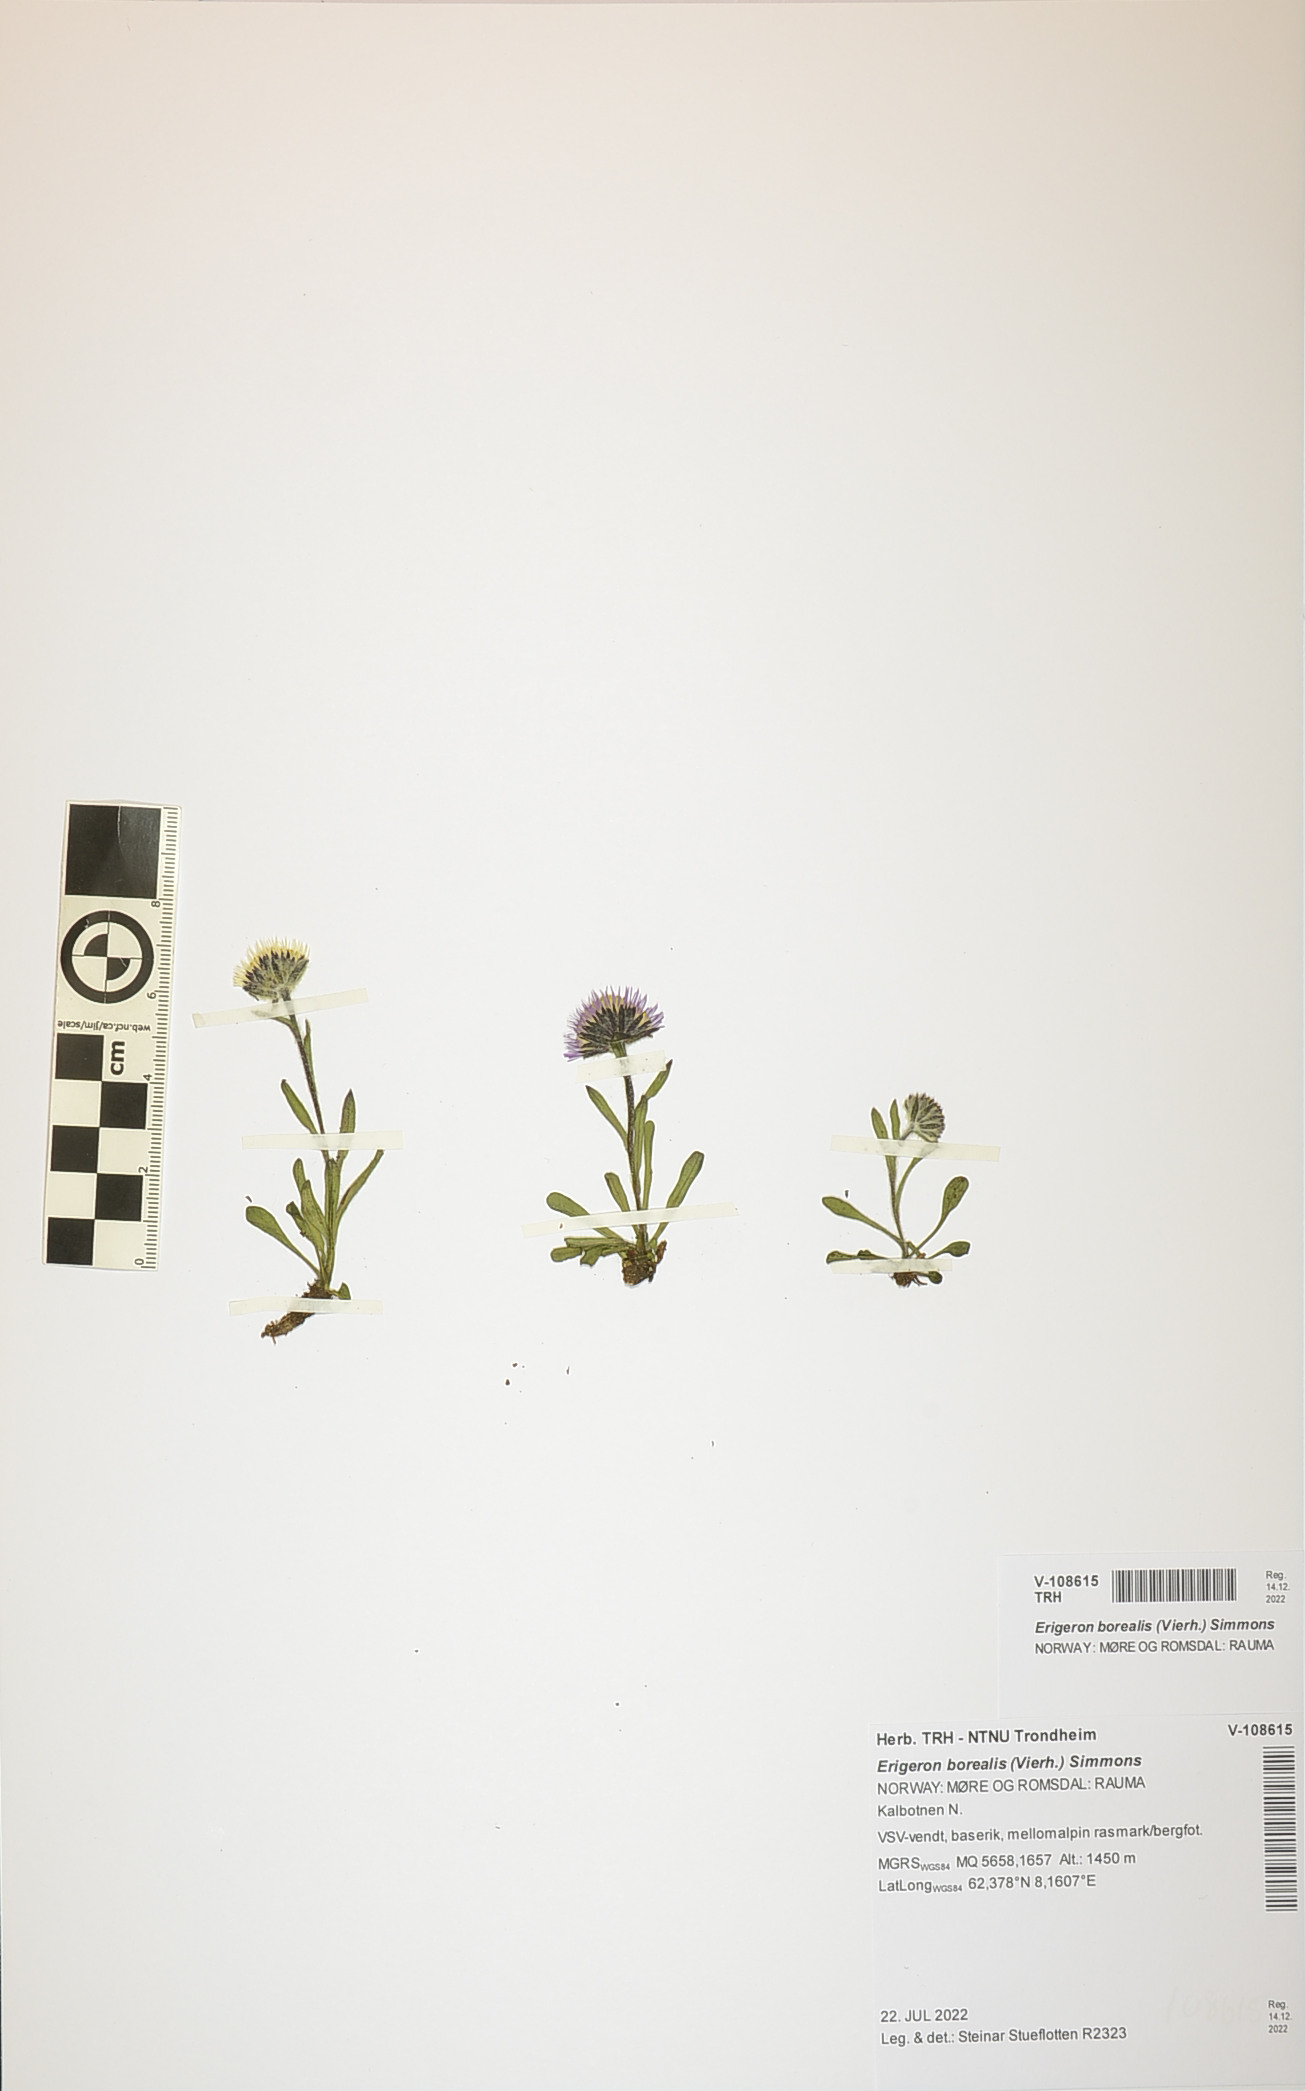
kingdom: Plantae
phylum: Tracheophyta
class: Magnoliopsida
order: Asterales
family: Asteraceae
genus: Erigeron
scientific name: Erigeron borealis
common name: Alpine fleabane
